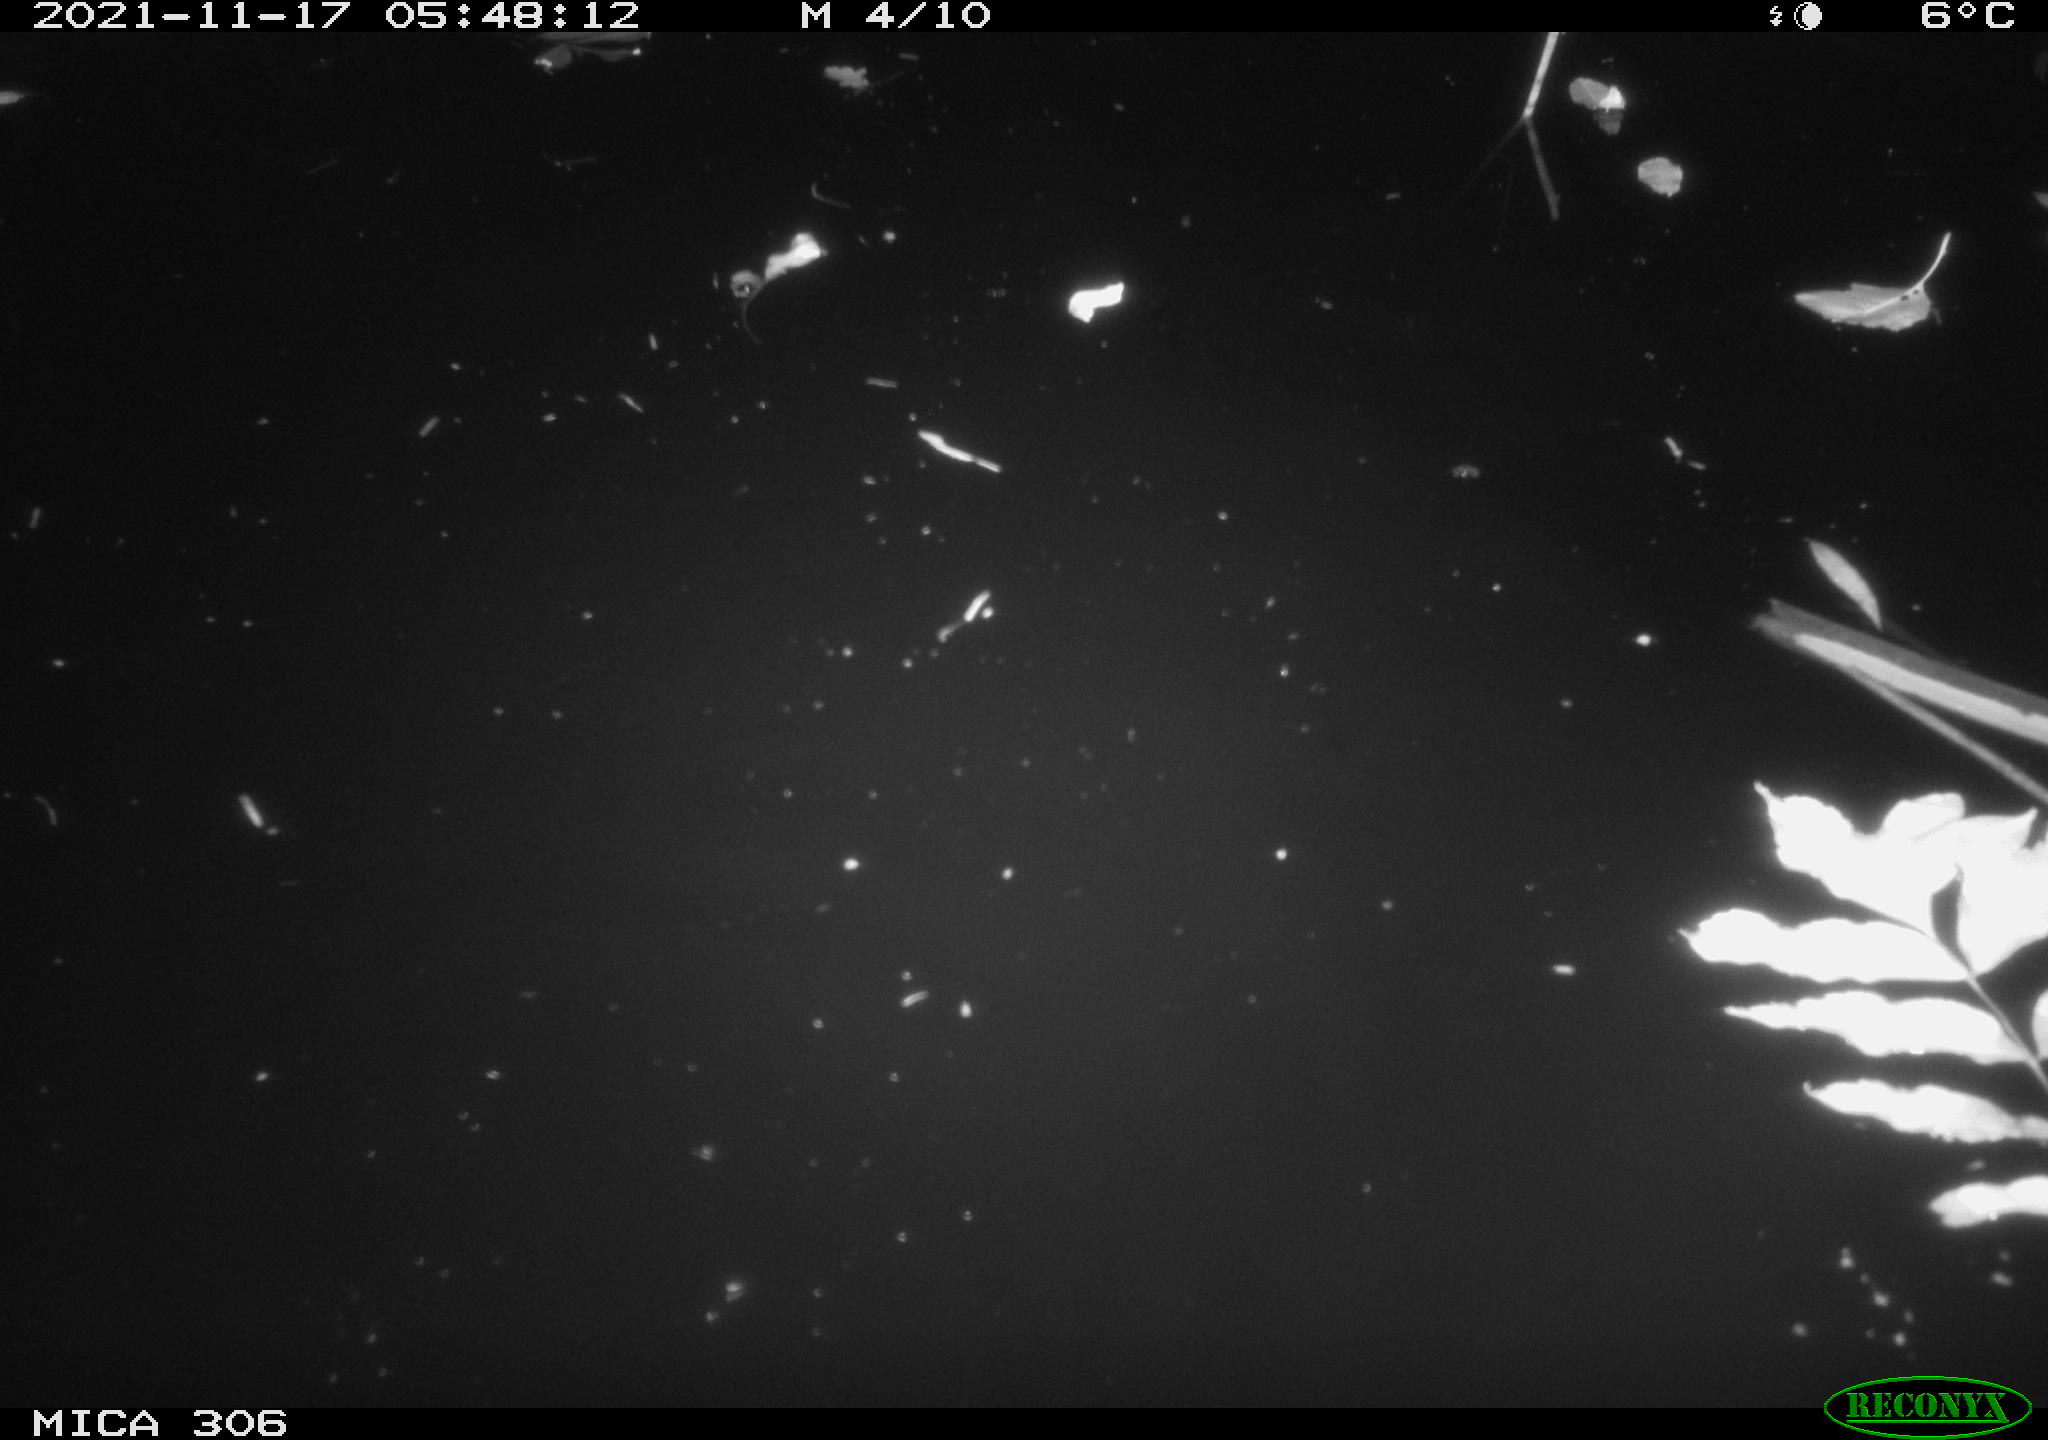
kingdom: Animalia
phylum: Chordata
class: Mammalia
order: Rodentia
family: Muridae
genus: Rattus
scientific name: Rattus norvegicus
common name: Brown rat
